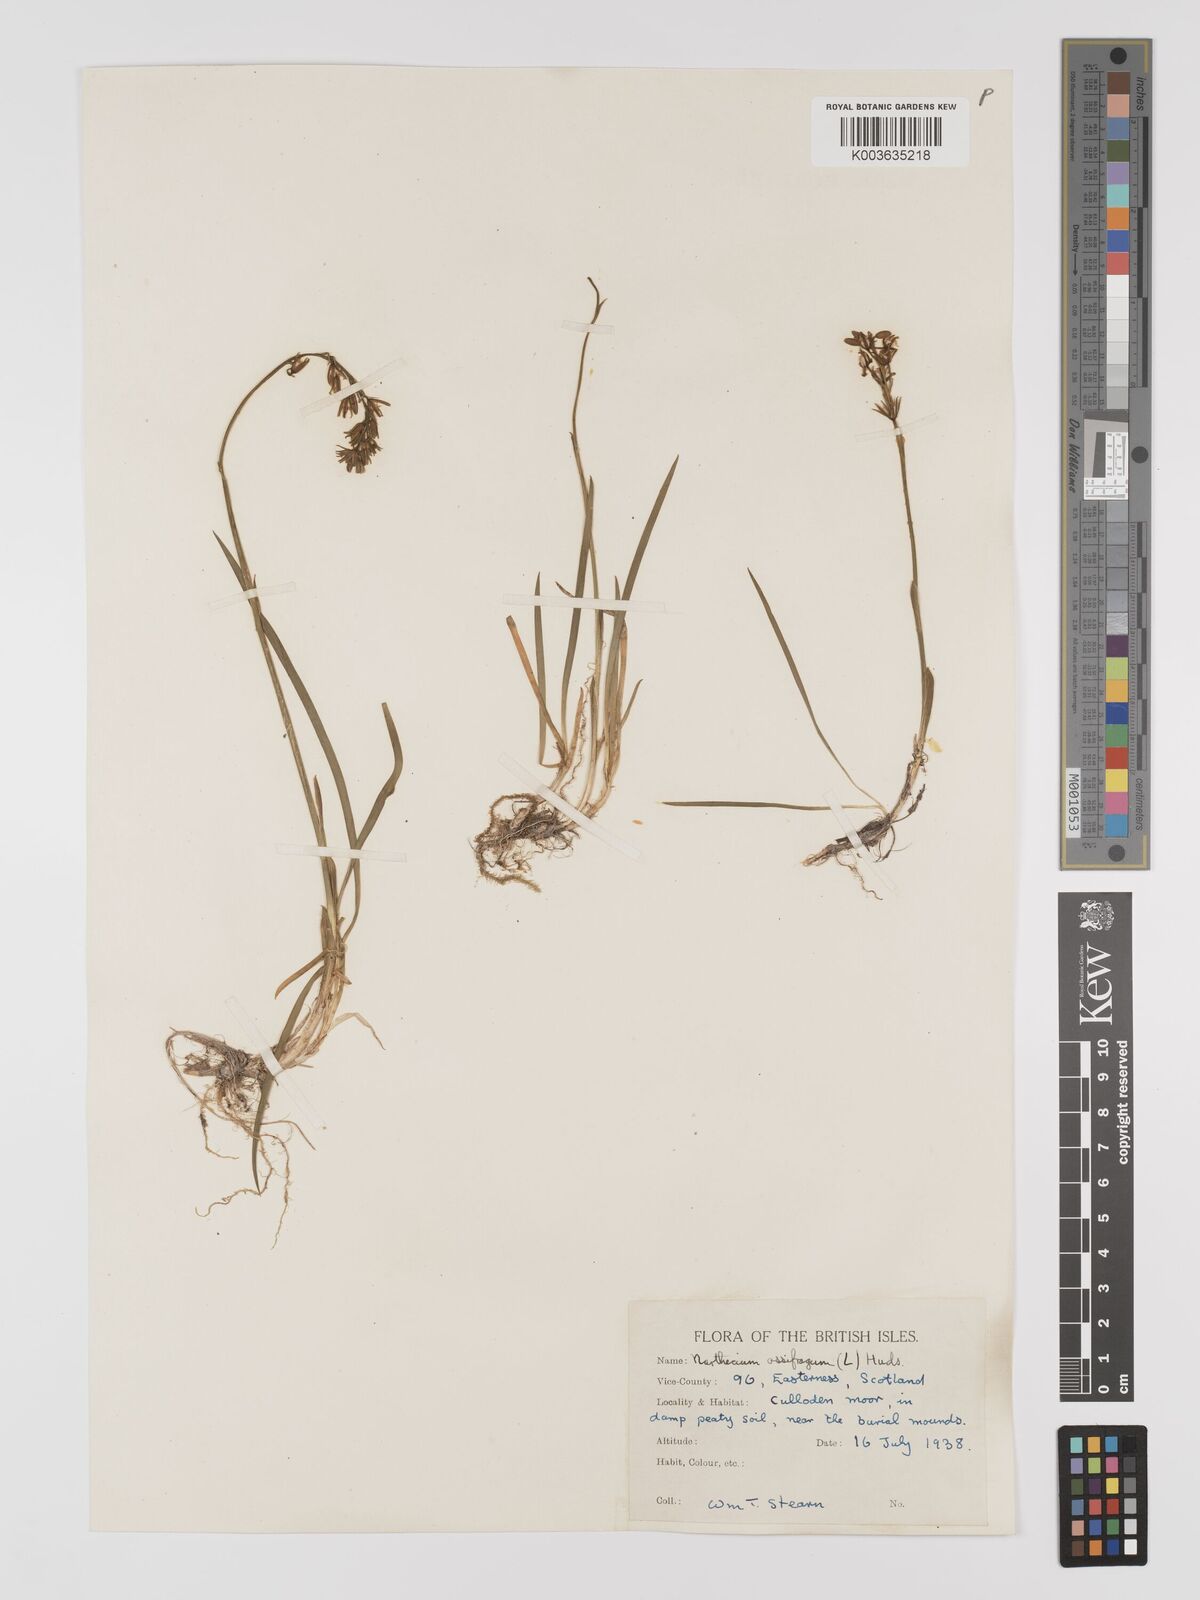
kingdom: Plantae
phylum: Tracheophyta
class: Liliopsida
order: Dioscoreales
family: Nartheciaceae
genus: Narthecium
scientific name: Narthecium
